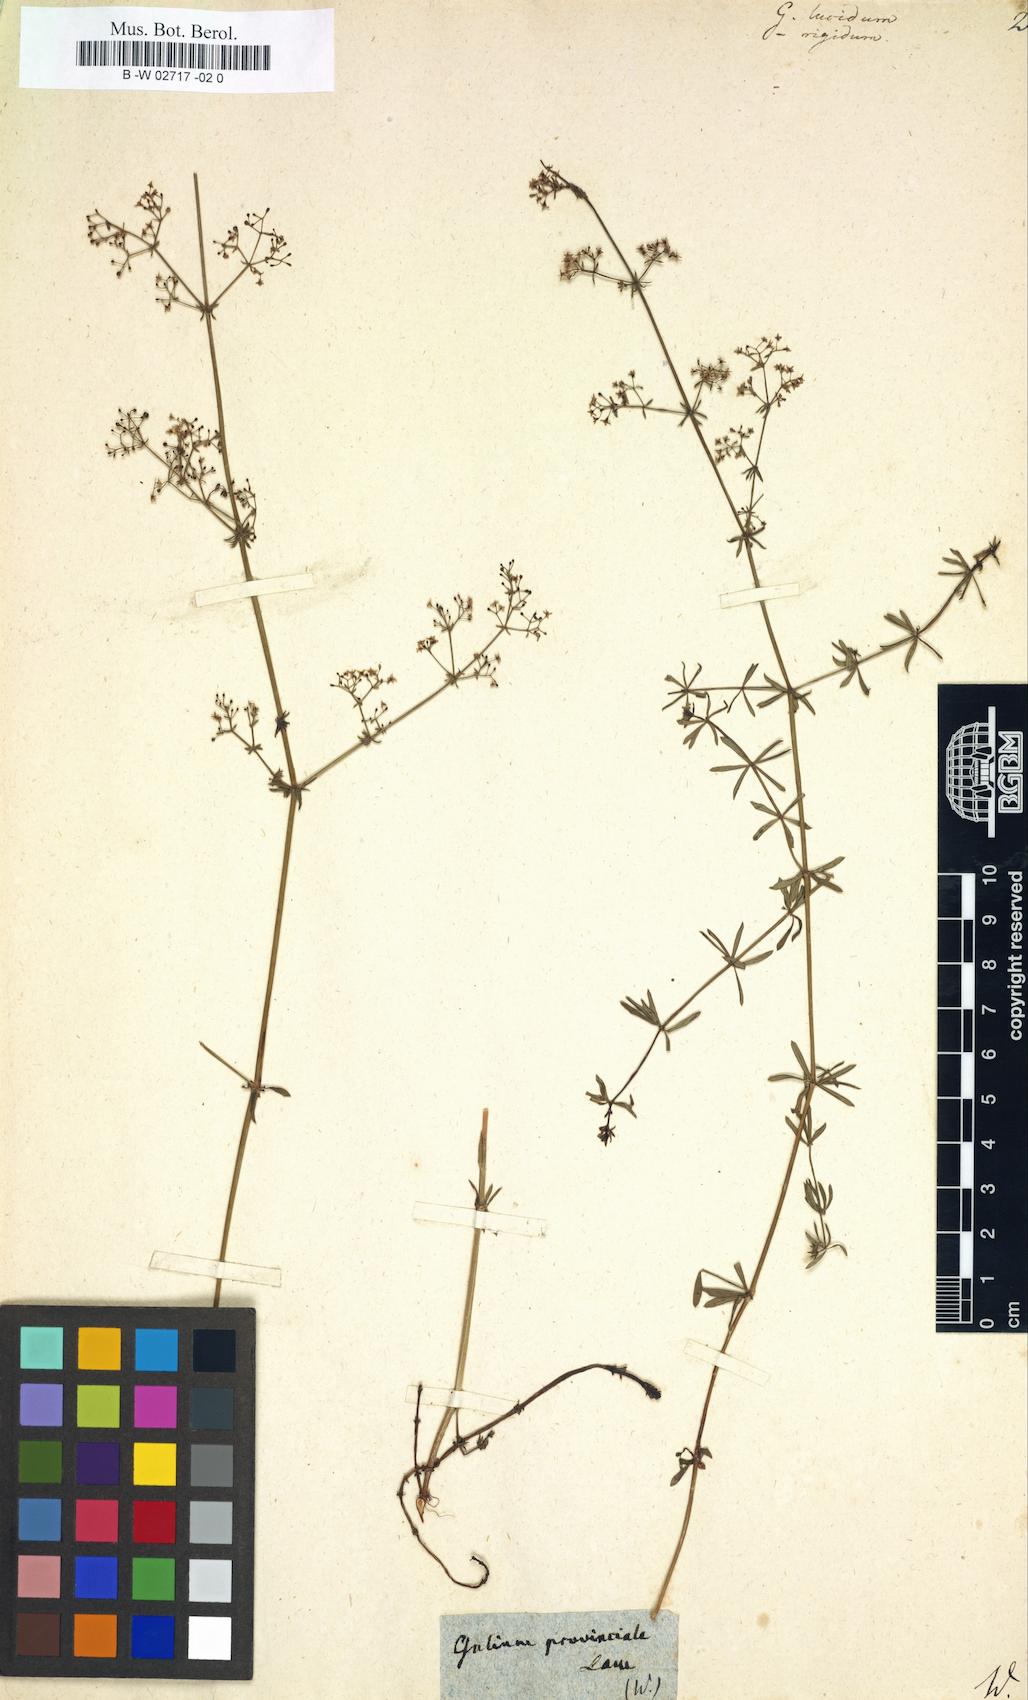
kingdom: Plantae
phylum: Tracheophyta
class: Magnoliopsida
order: Gentianales
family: Rubiaceae
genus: Galium
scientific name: Galium lucidum
